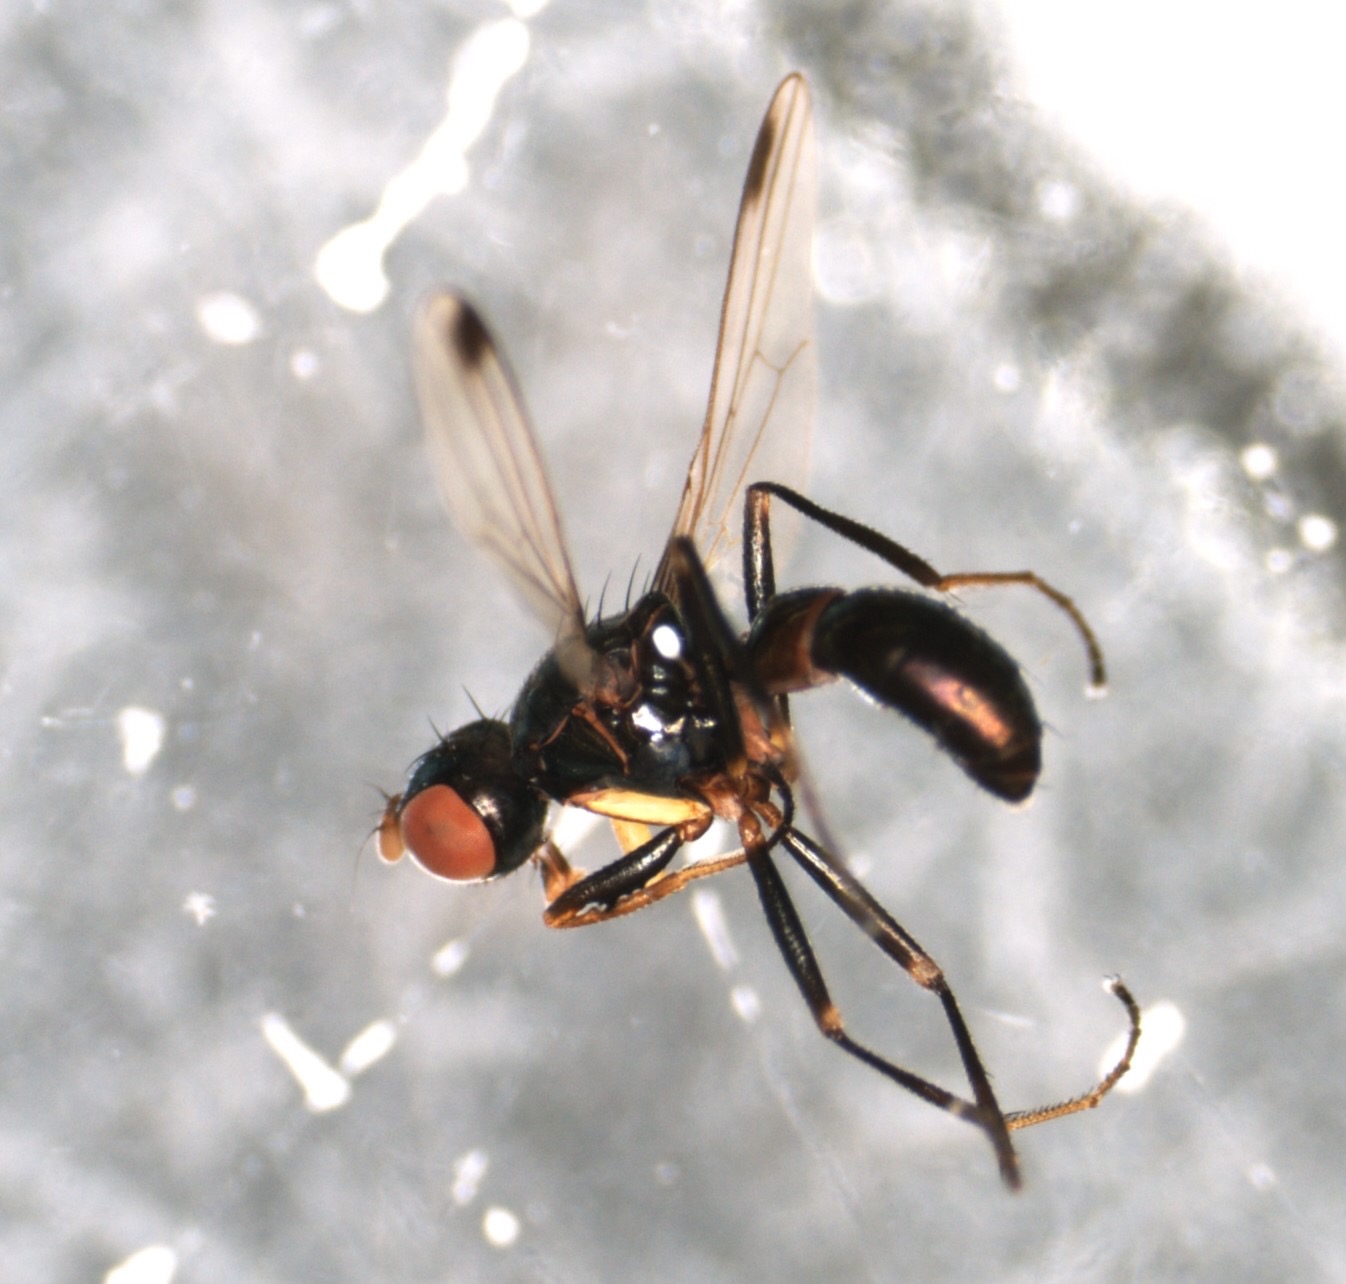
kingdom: Animalia
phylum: Arthropoda
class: Insecta
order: Diptera
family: Sepsidae
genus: Sepsis
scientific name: Sepsis cynipsea
